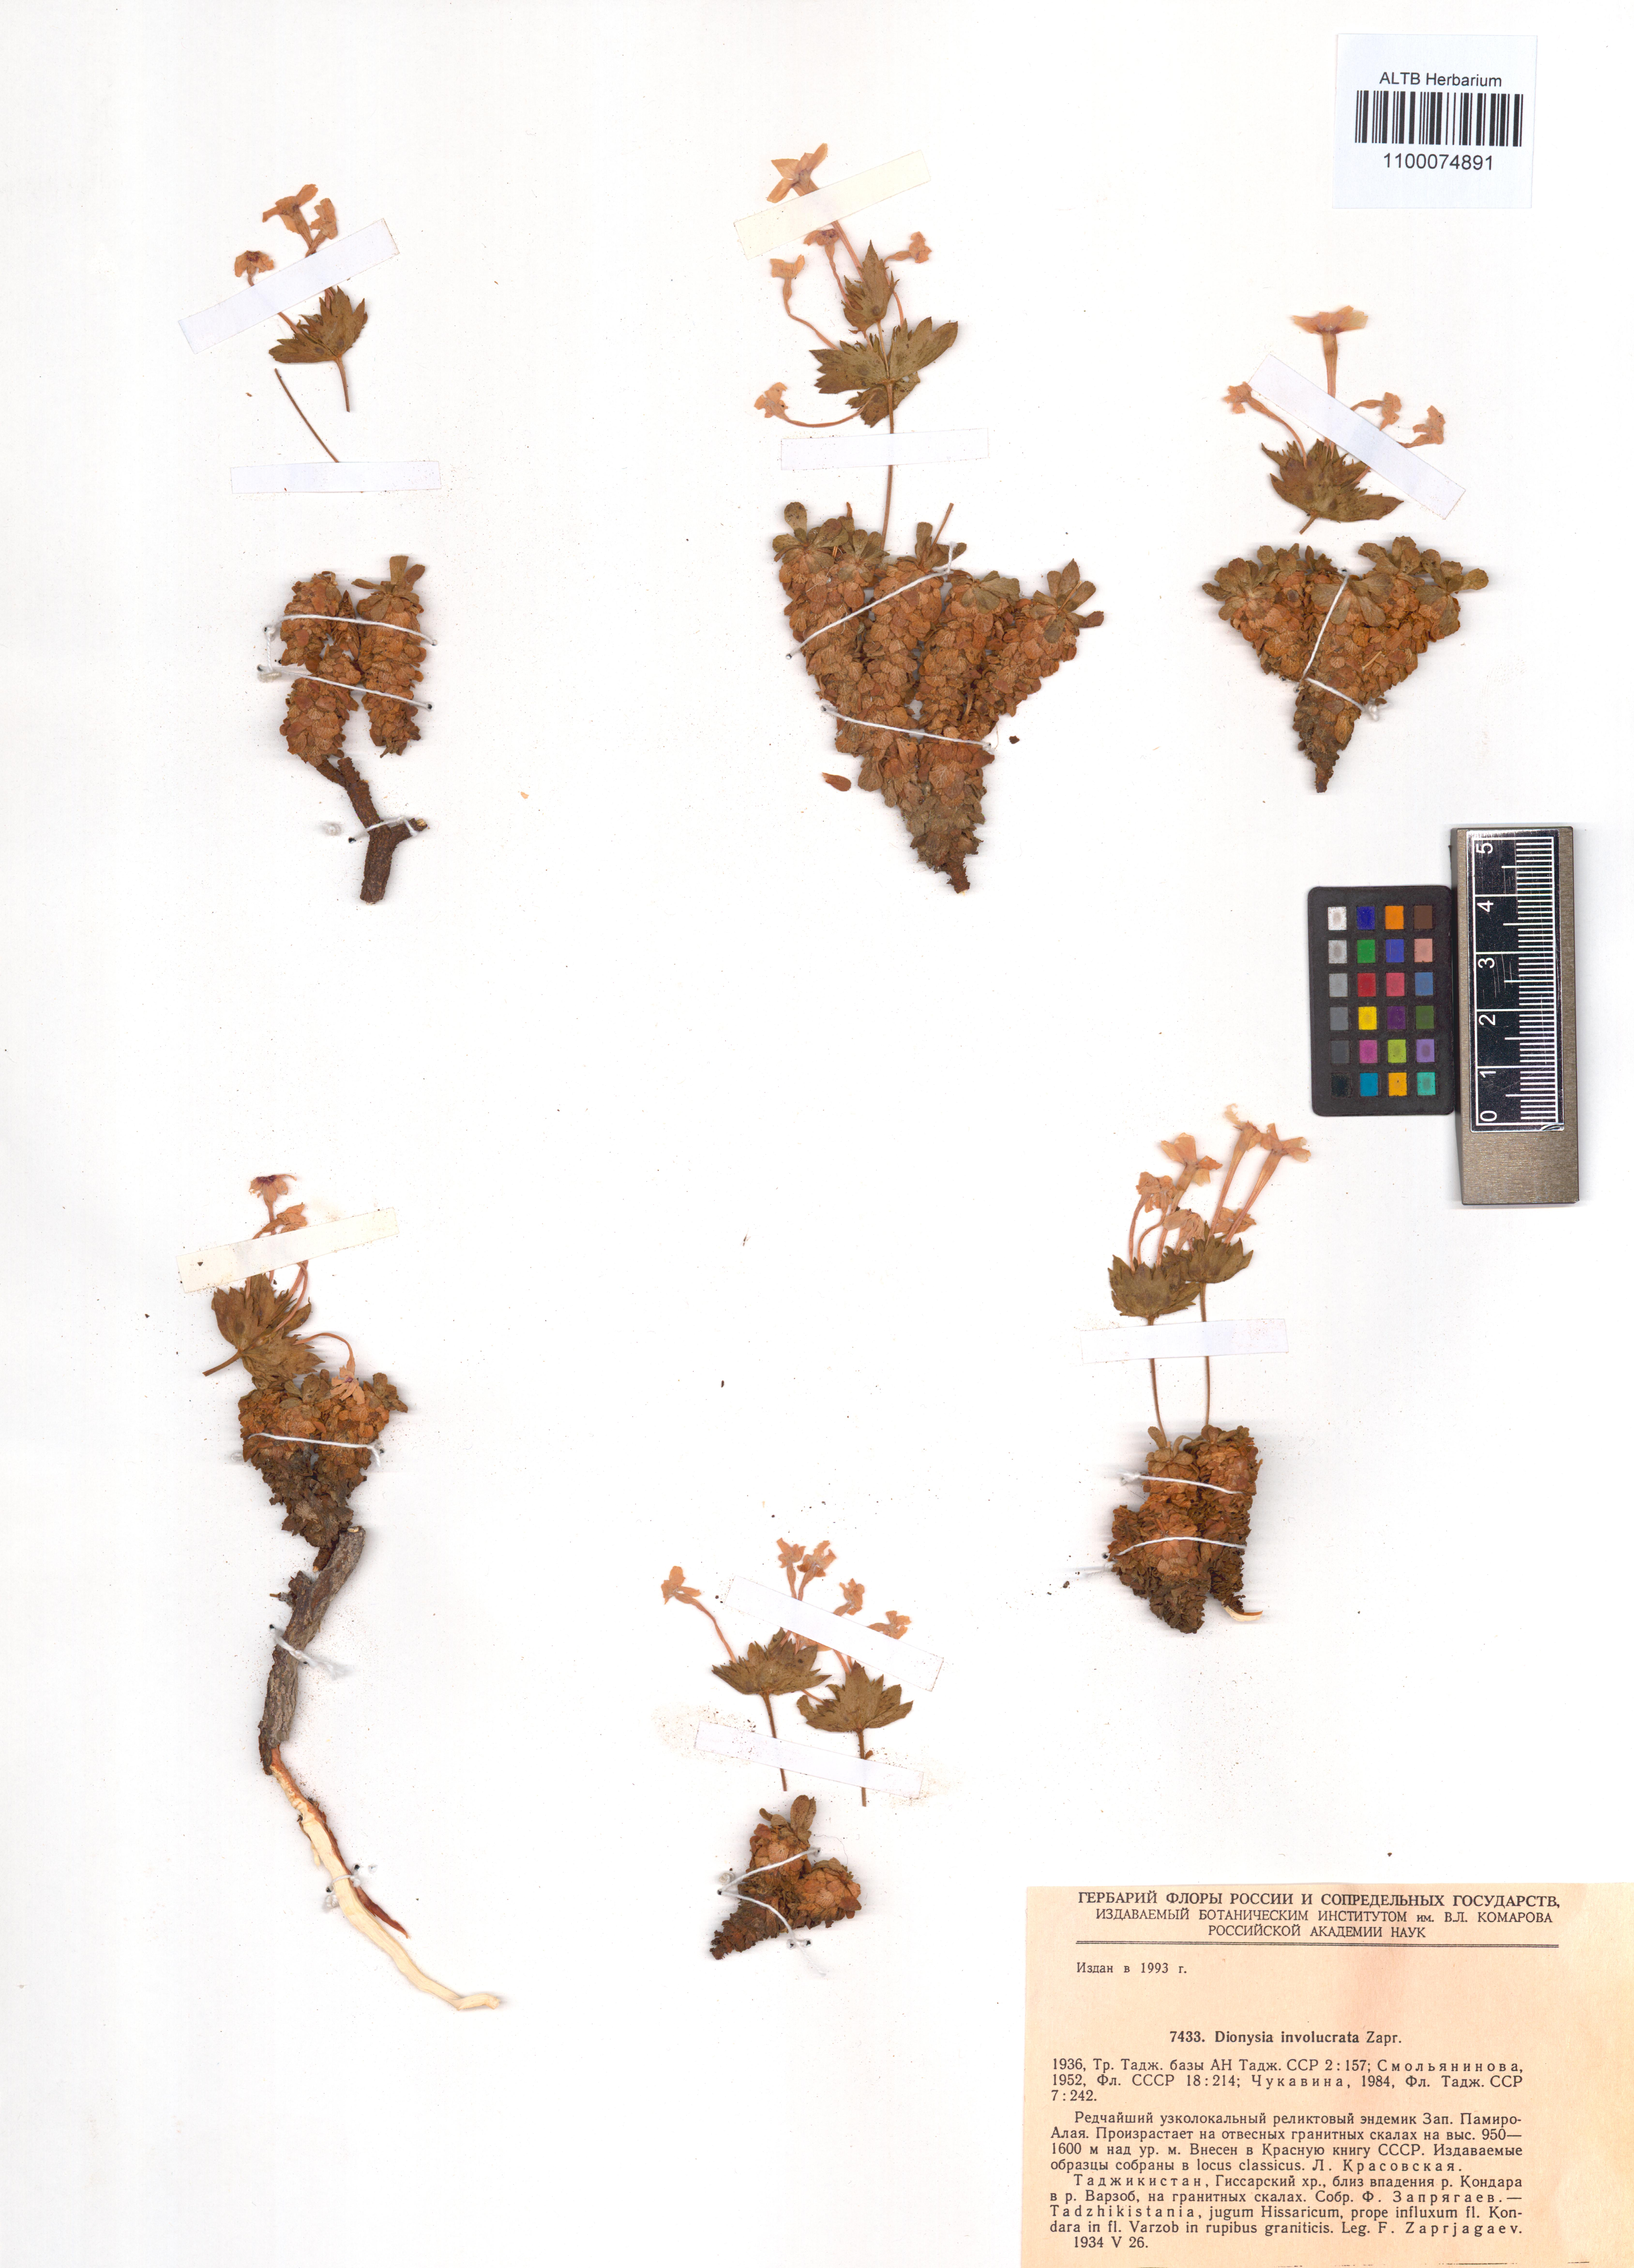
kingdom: Plantae
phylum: Tracheophyta
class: Magnoliopsida
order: Ericales
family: Primulaceae
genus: Dionysia
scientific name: Dionysia involucrata
